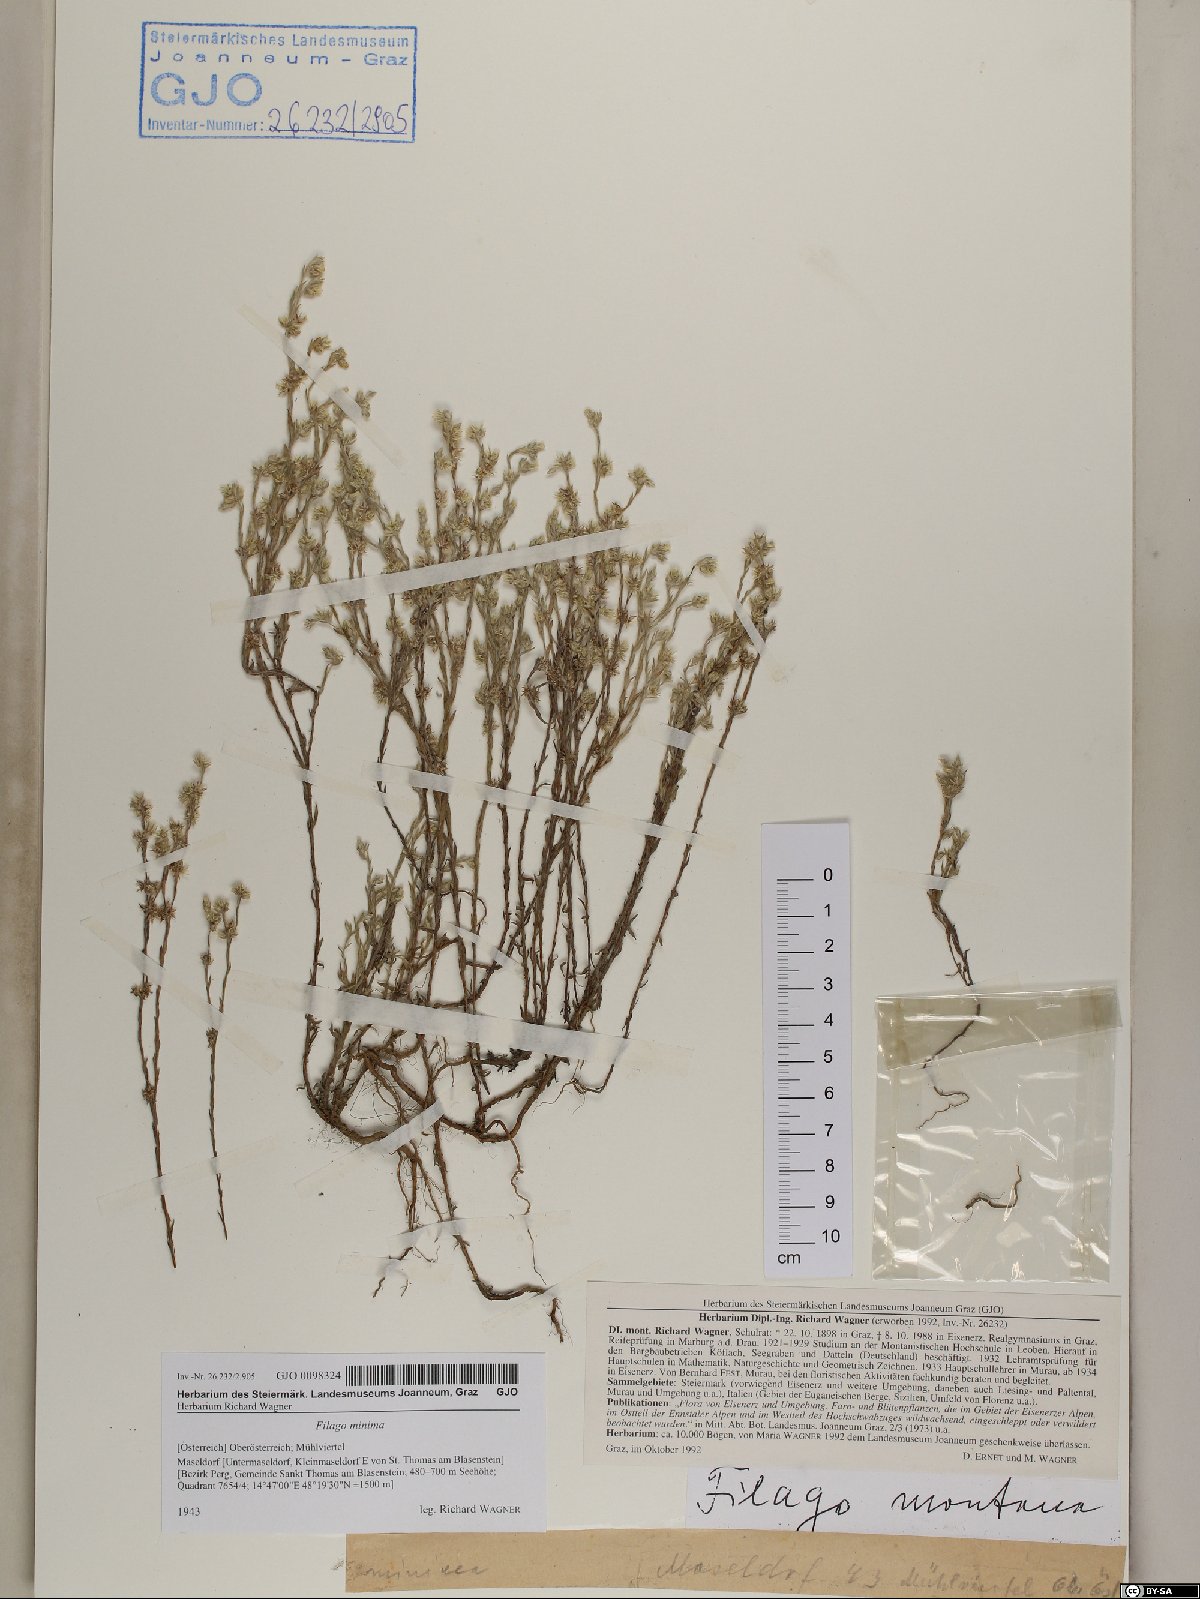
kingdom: Plantae
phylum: Tracheophyta
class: Magnoliopsida
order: Asterales
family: Asteraceae
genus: Logfia
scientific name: Logfia minima
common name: Little cottonrose
